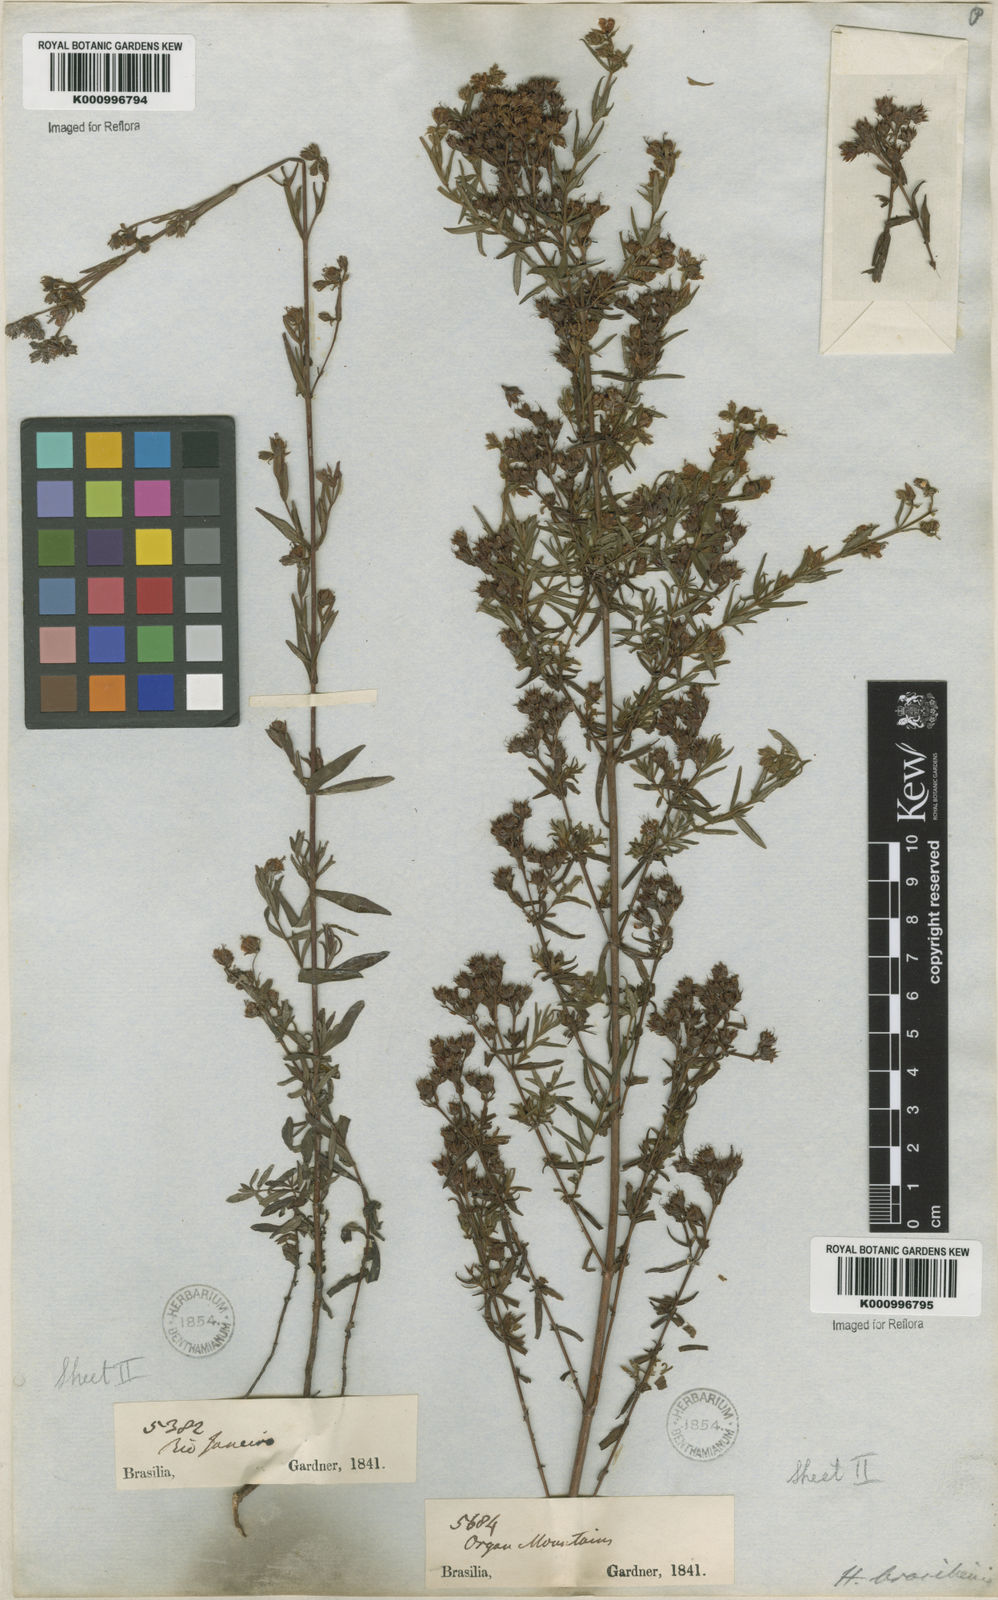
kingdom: Plantae
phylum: Tracheophyta
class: Magnoliopsida
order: Malpighiales
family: Hypericaceae
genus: Hypericum
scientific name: Hypericum brasiliense
